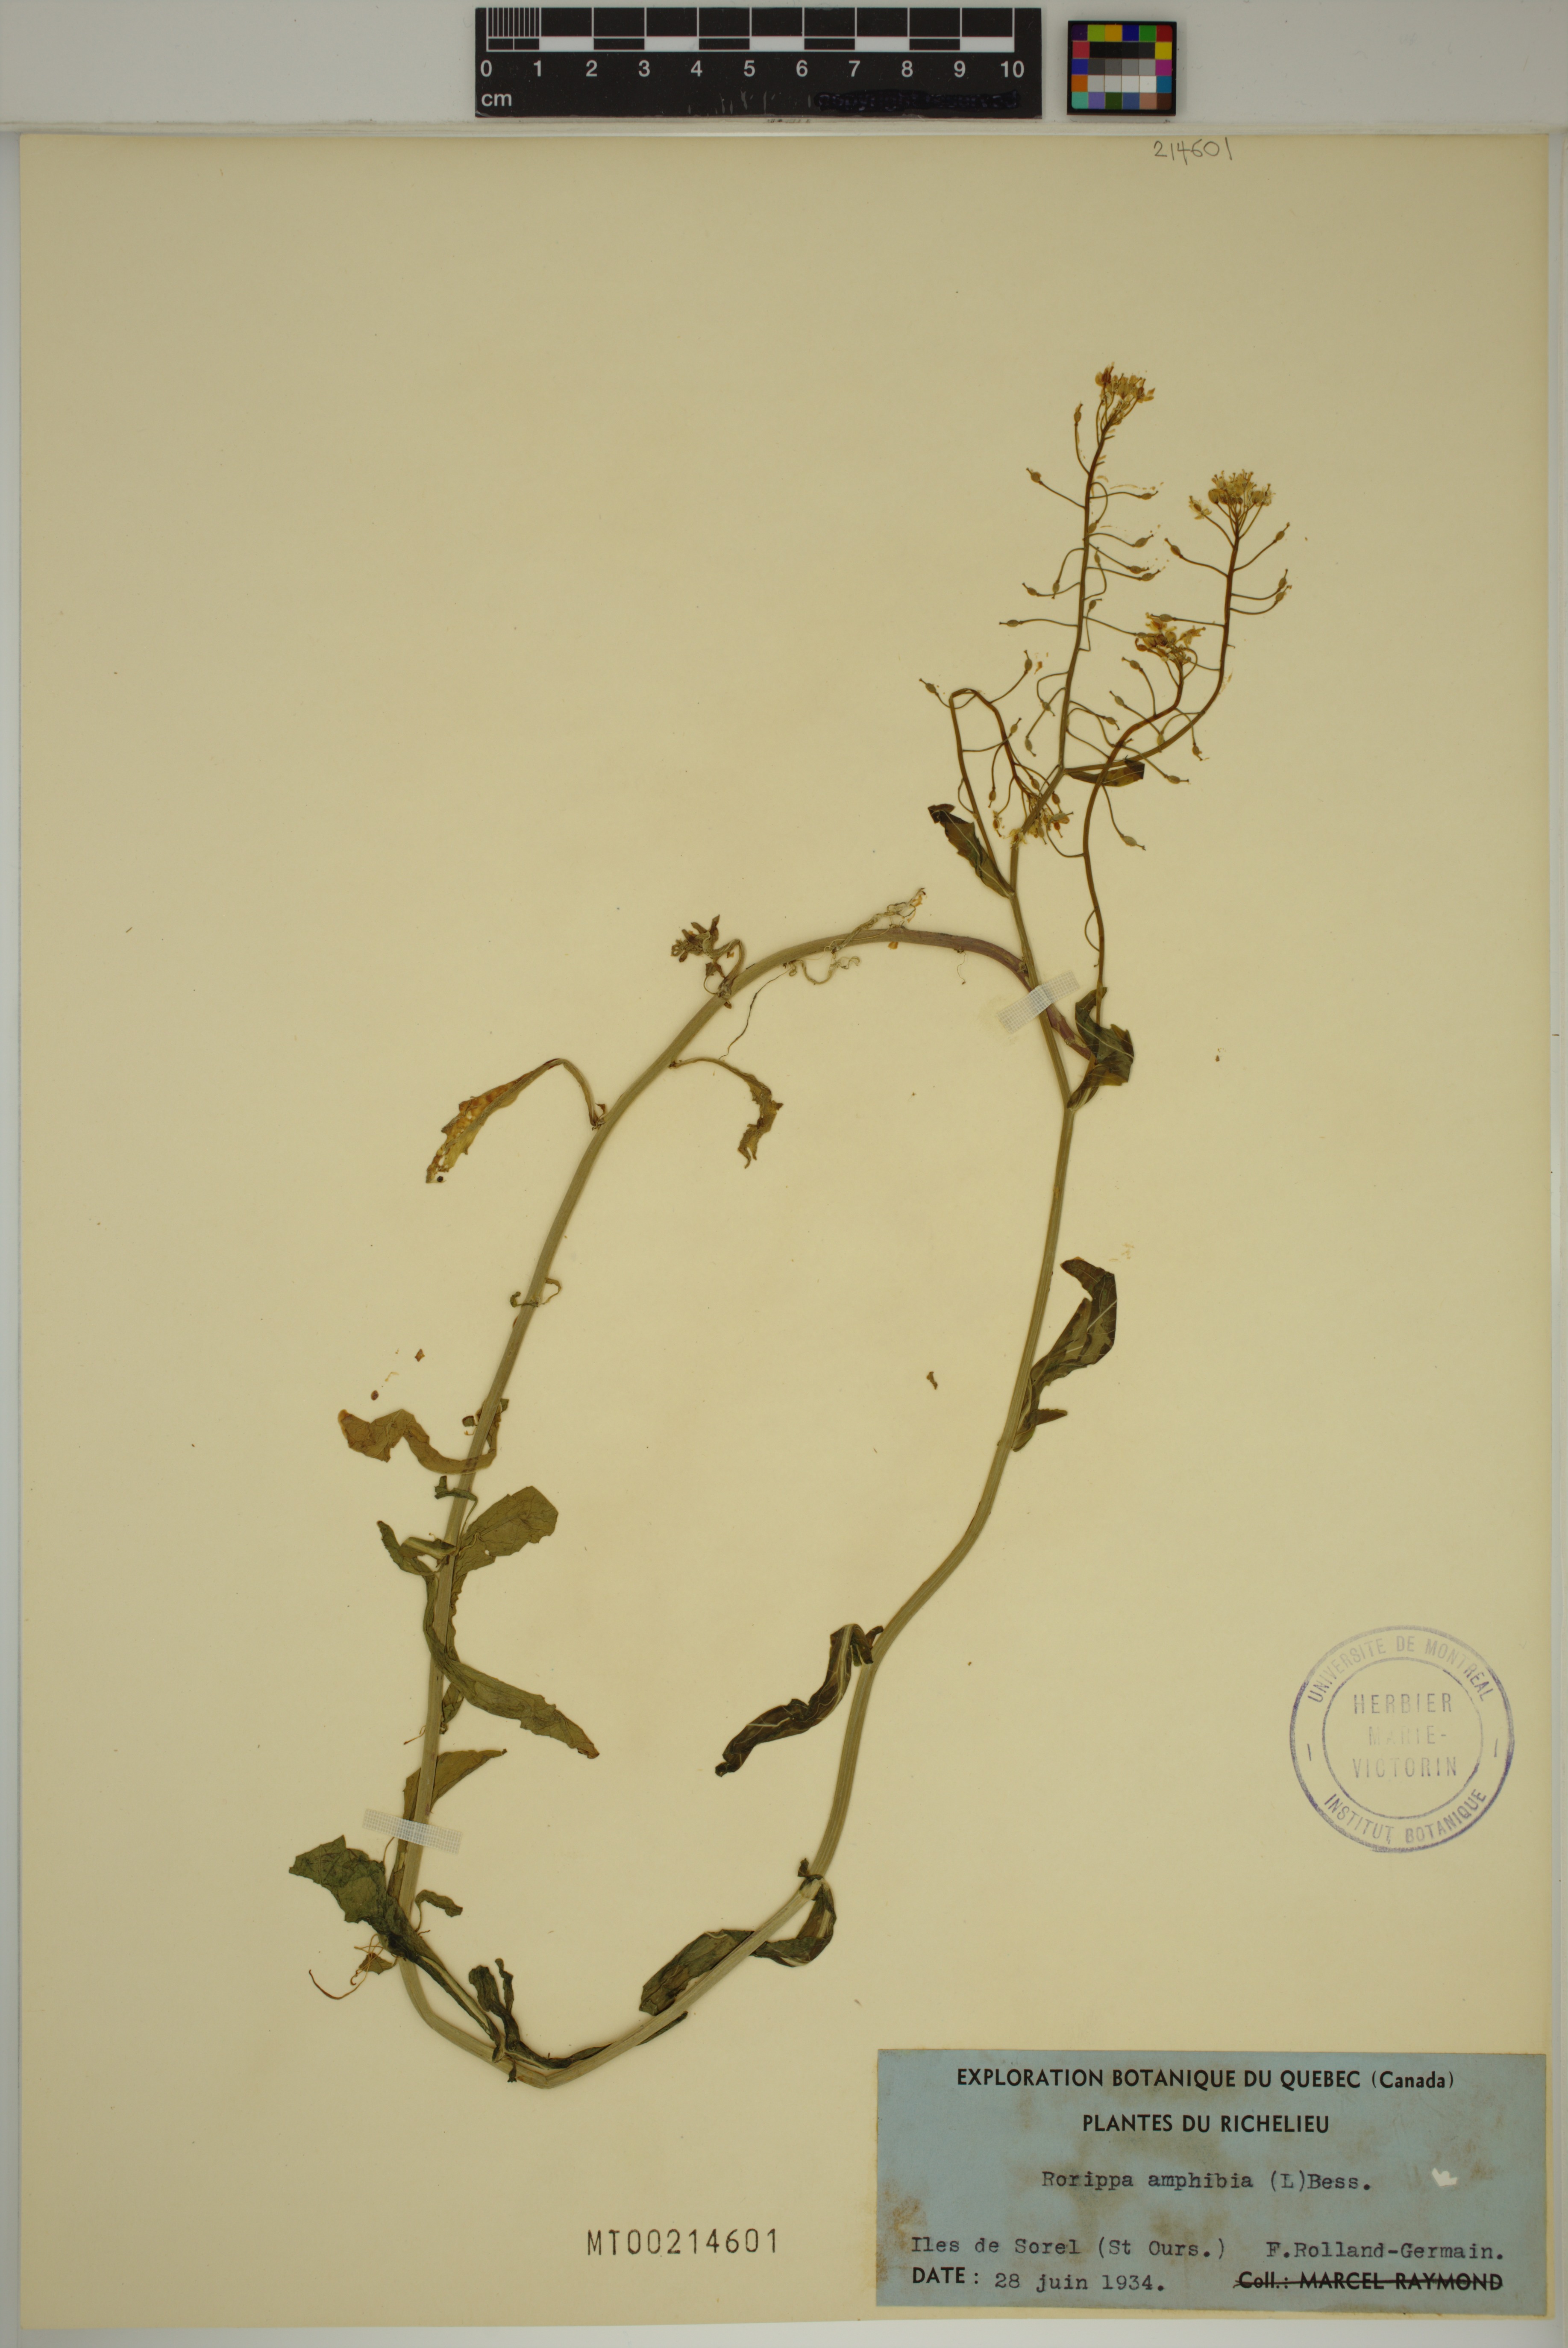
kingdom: Plantae
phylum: Tracheophyta
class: Magnoliopsida
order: Brassicales
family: Brassicaceae
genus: Rorippa
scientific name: Rorippa amphibia
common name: Great yellow-cress
